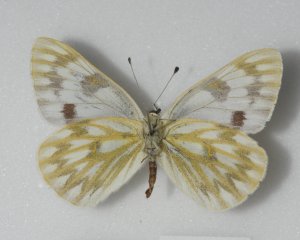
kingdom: Animalia
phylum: Arthropoda
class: Insecta
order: Lepidoptera
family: Pieridae
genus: Pontia
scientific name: Pontia occidentalis
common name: Western White
